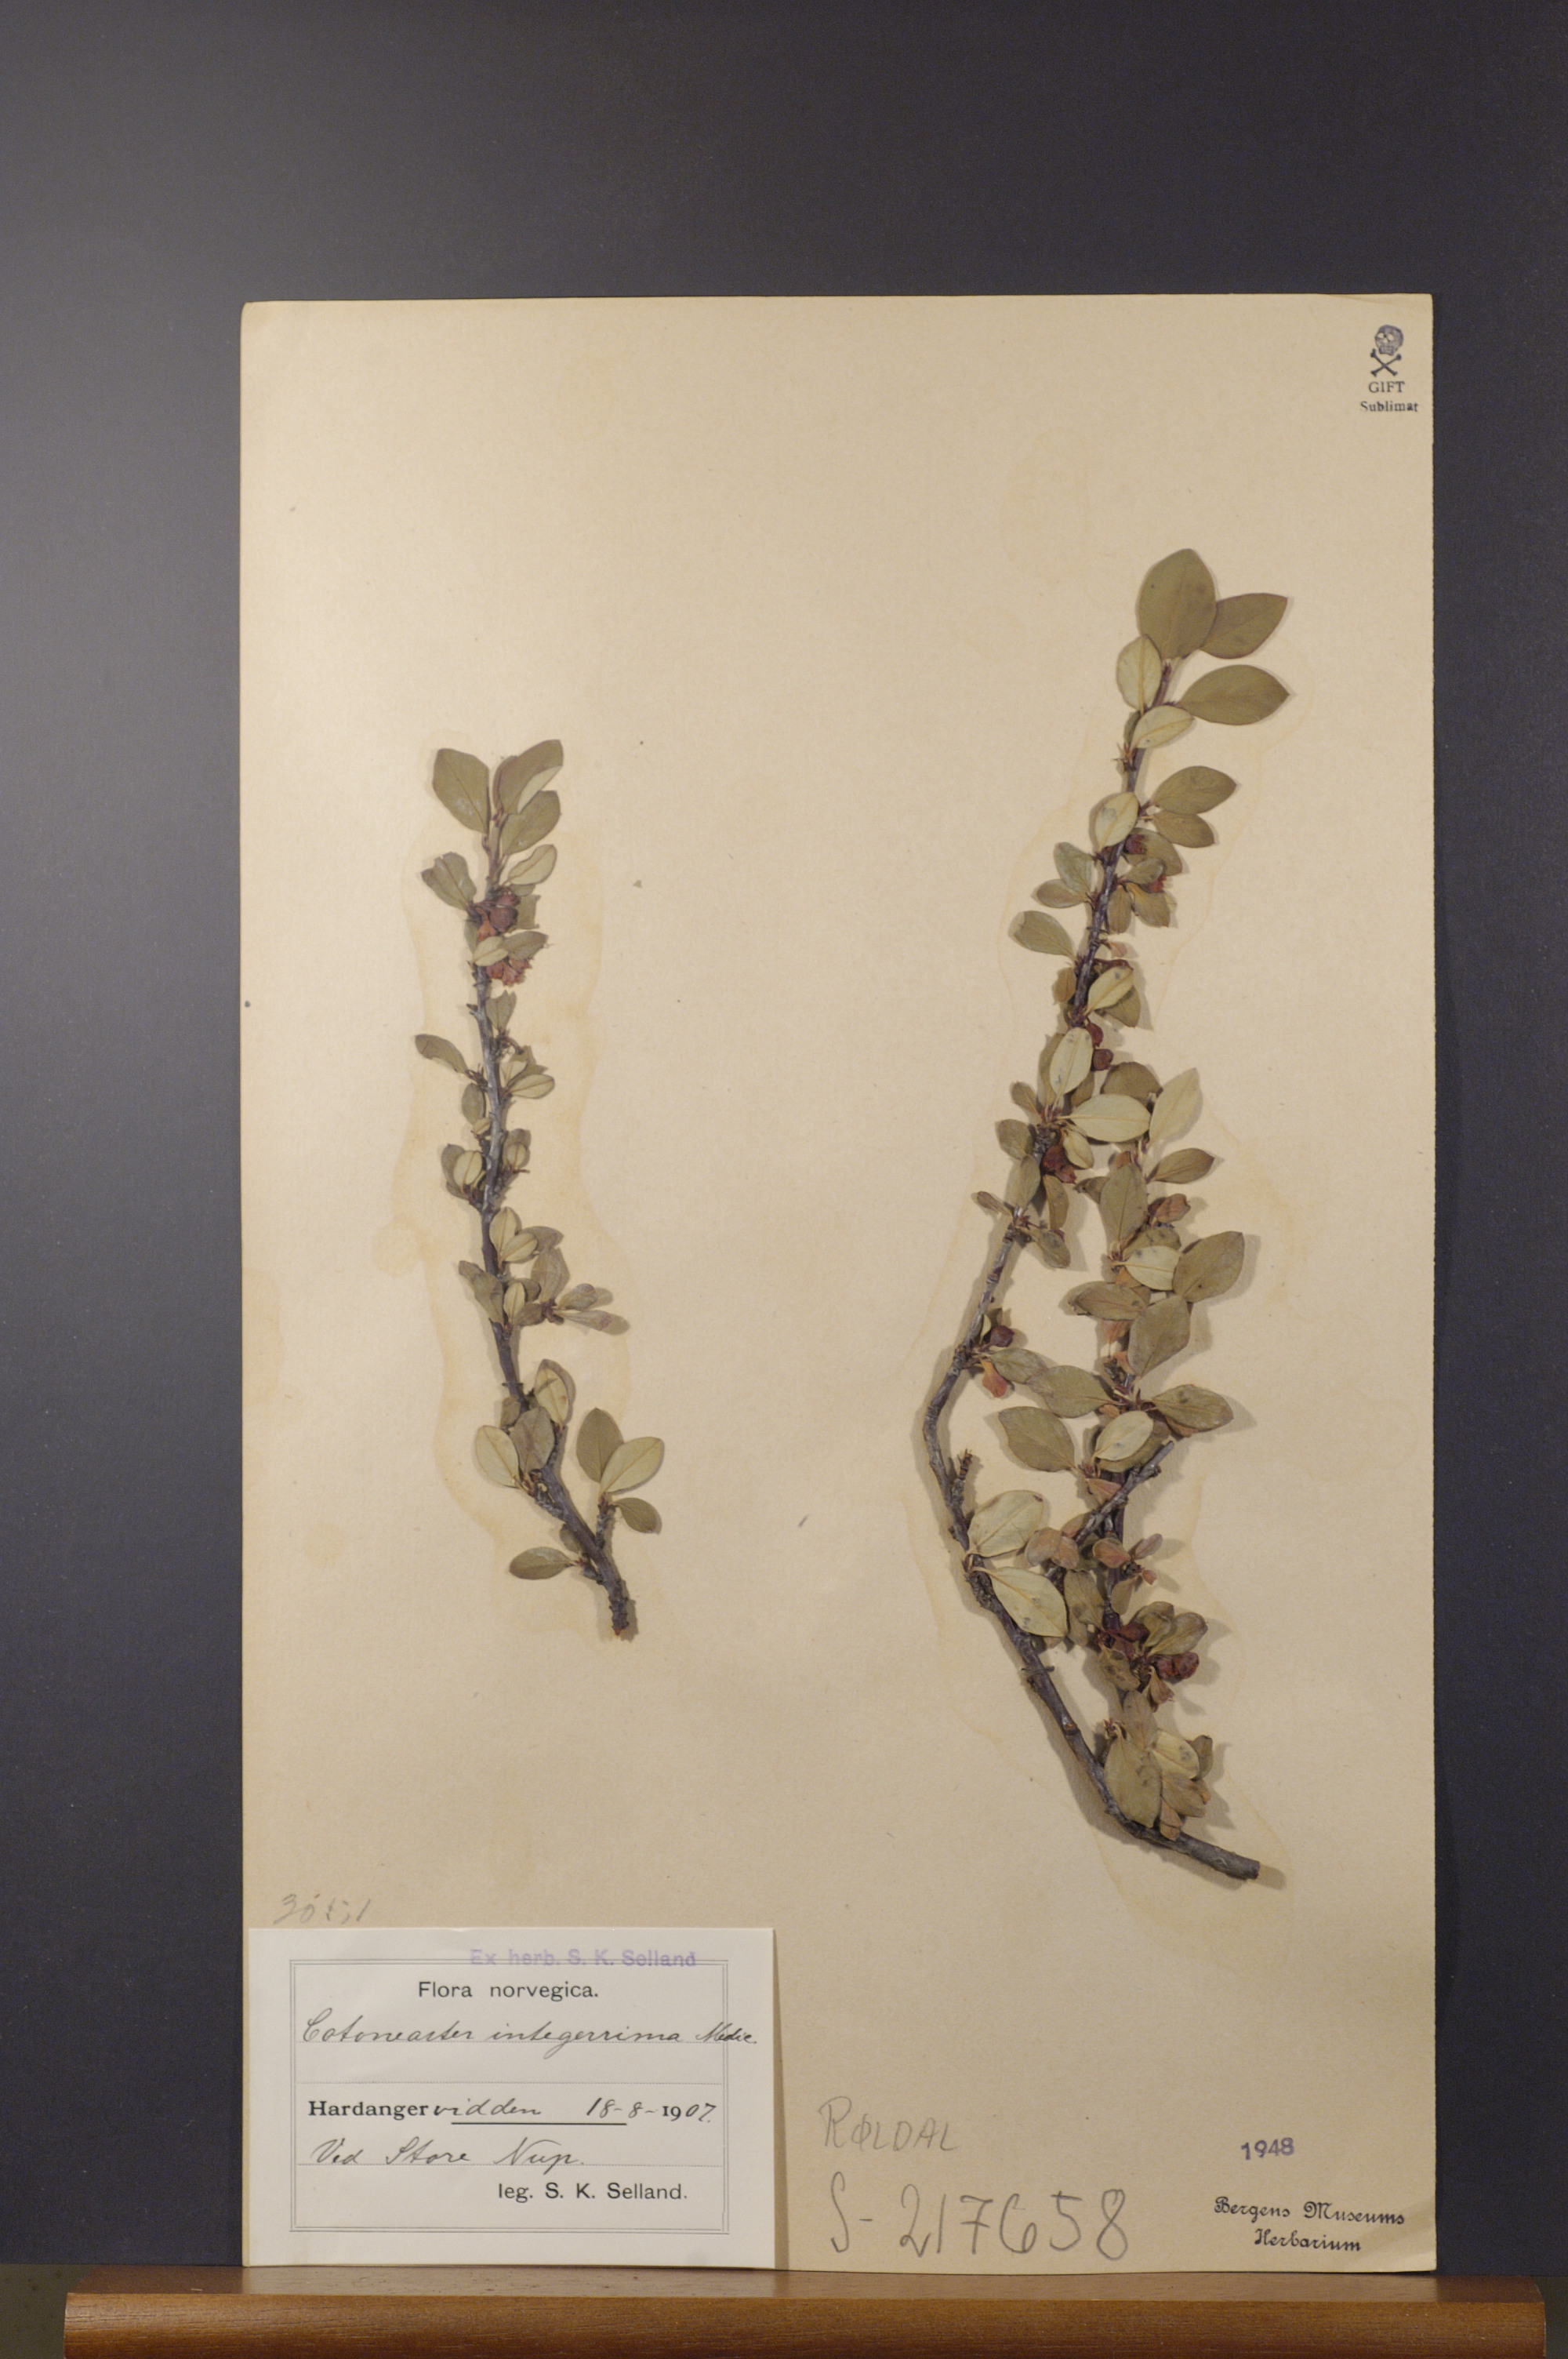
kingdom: Plantae
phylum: Tracheophyta
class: Magnoliopsida
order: Rosales
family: Rosaceae
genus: Cotoneaster
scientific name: Cotoneaster integerrimus
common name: Wild cotoneaster
